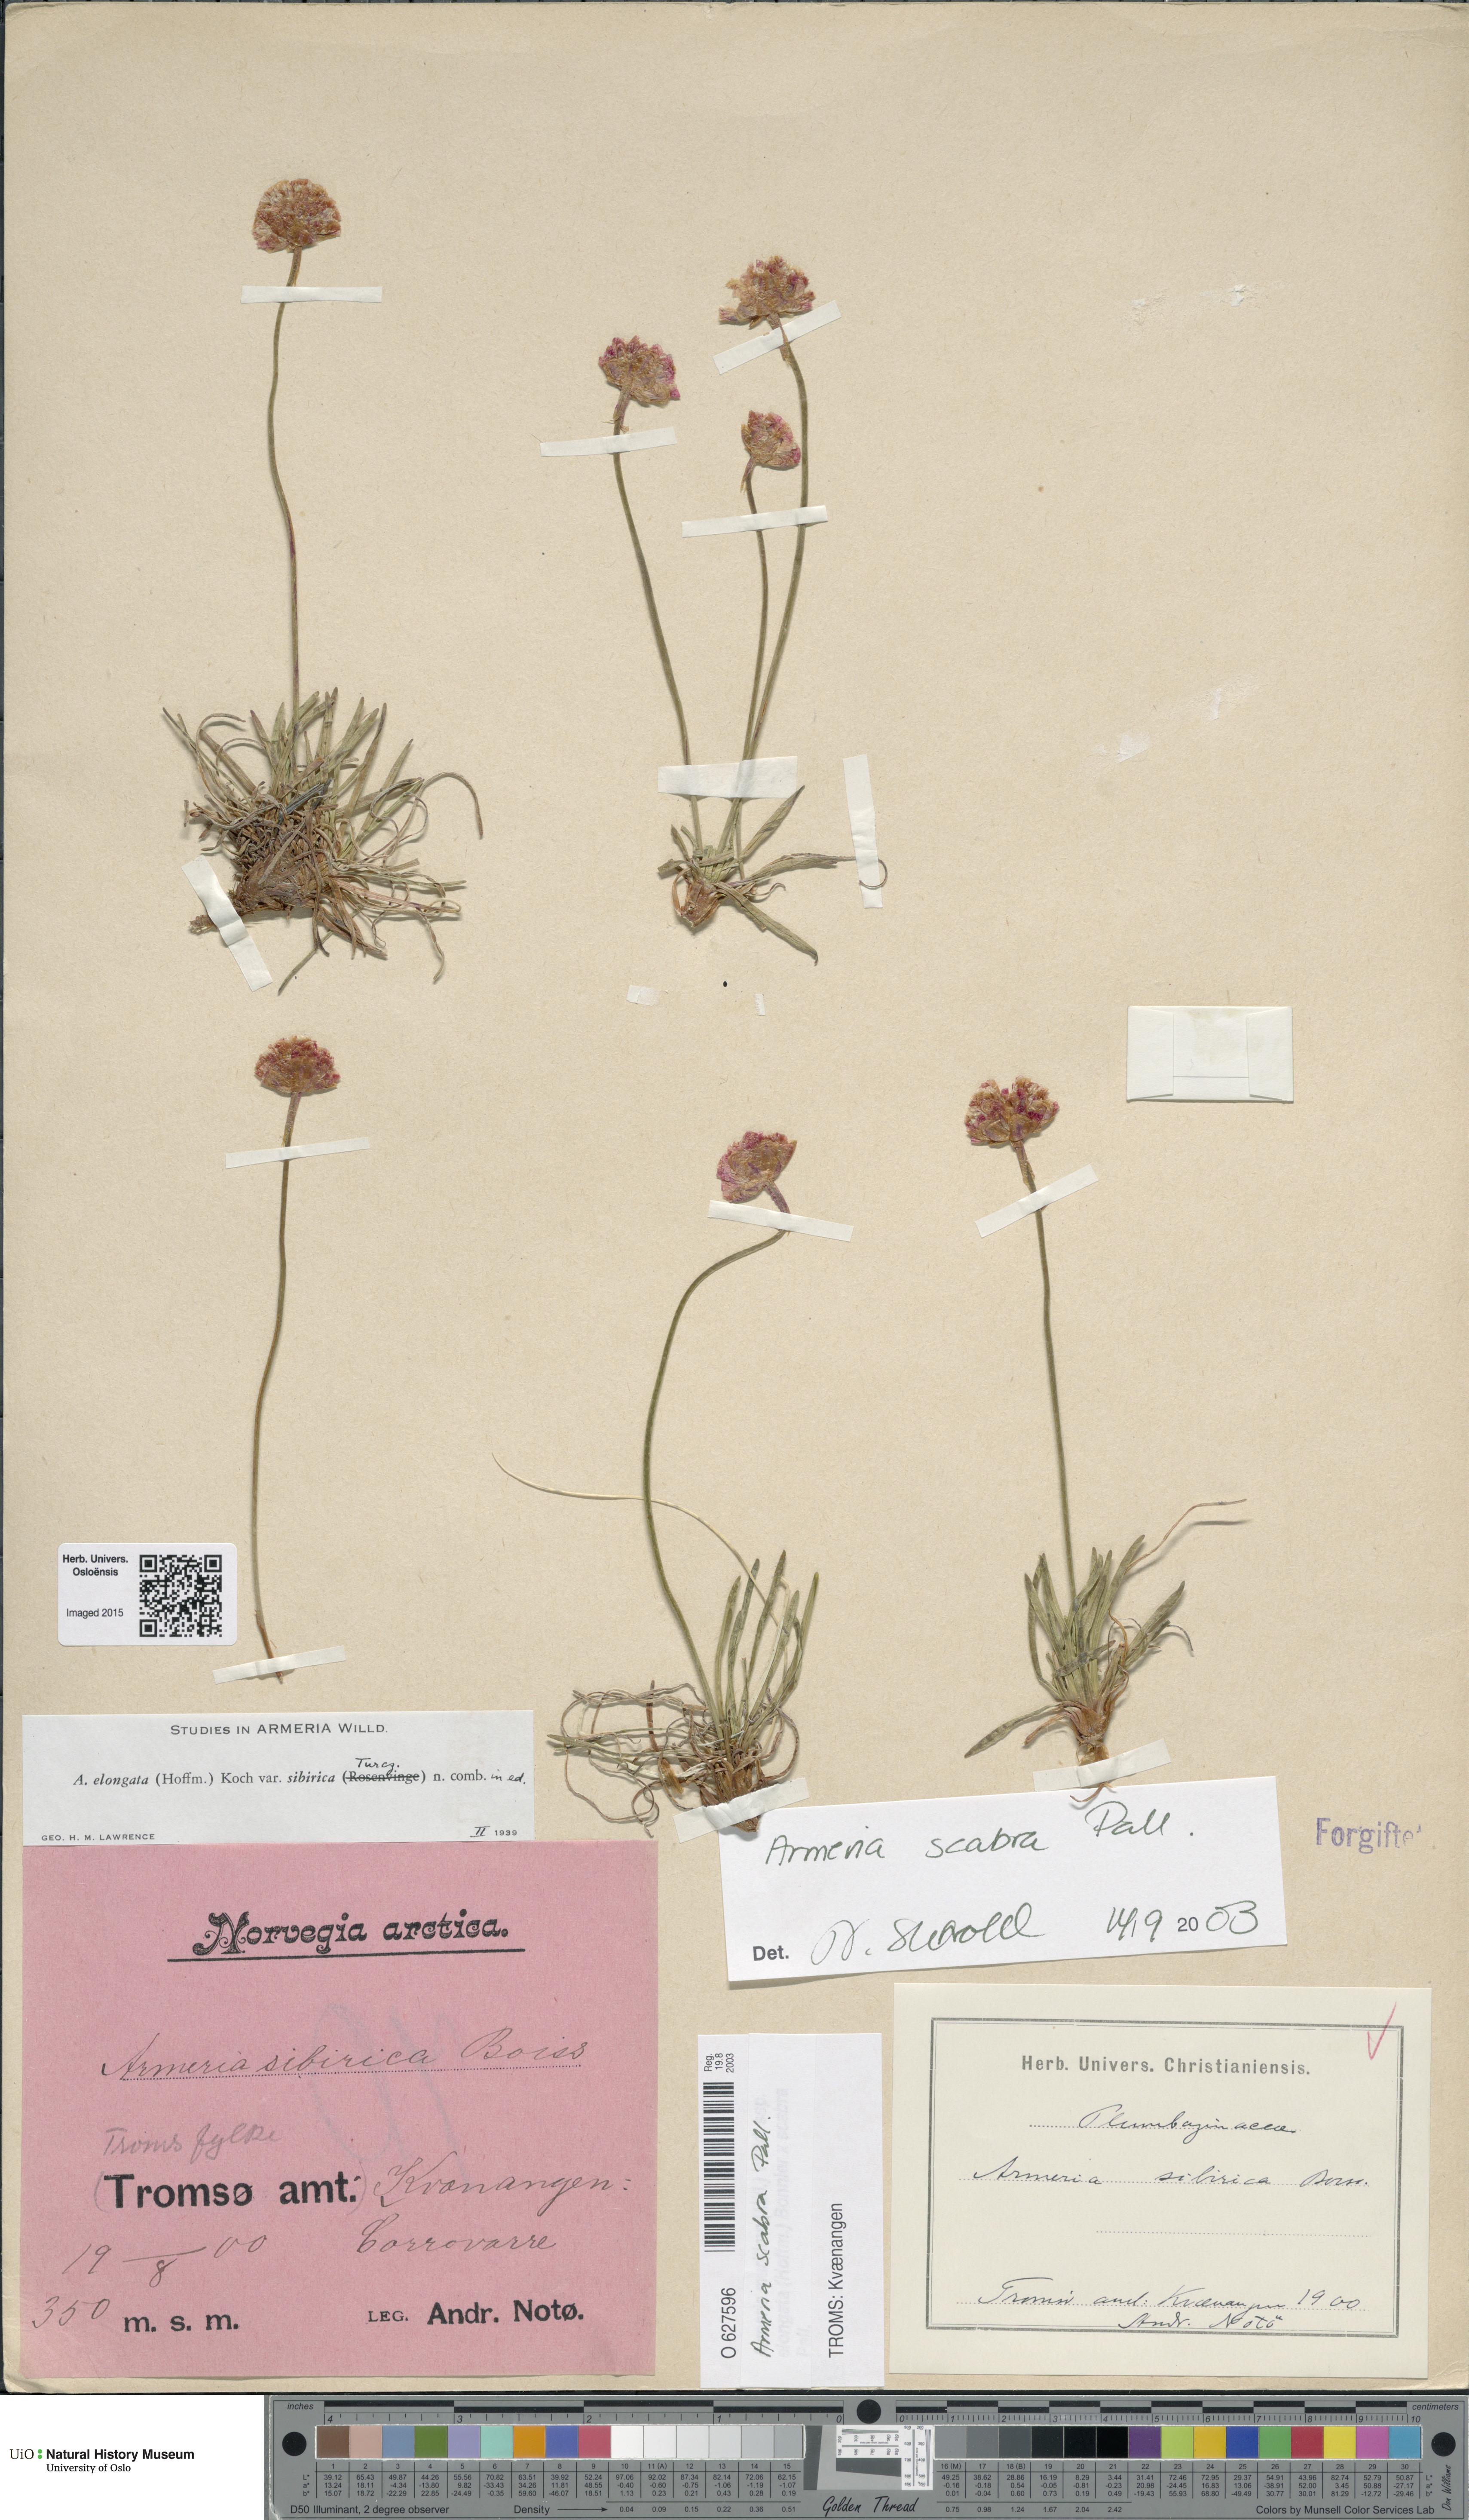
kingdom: Plantae
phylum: Tracheophyta
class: Magnoliopsida
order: Caryophyllales
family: Plumbaginaceae
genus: Armeria
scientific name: Armeria maritima
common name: Thrift
